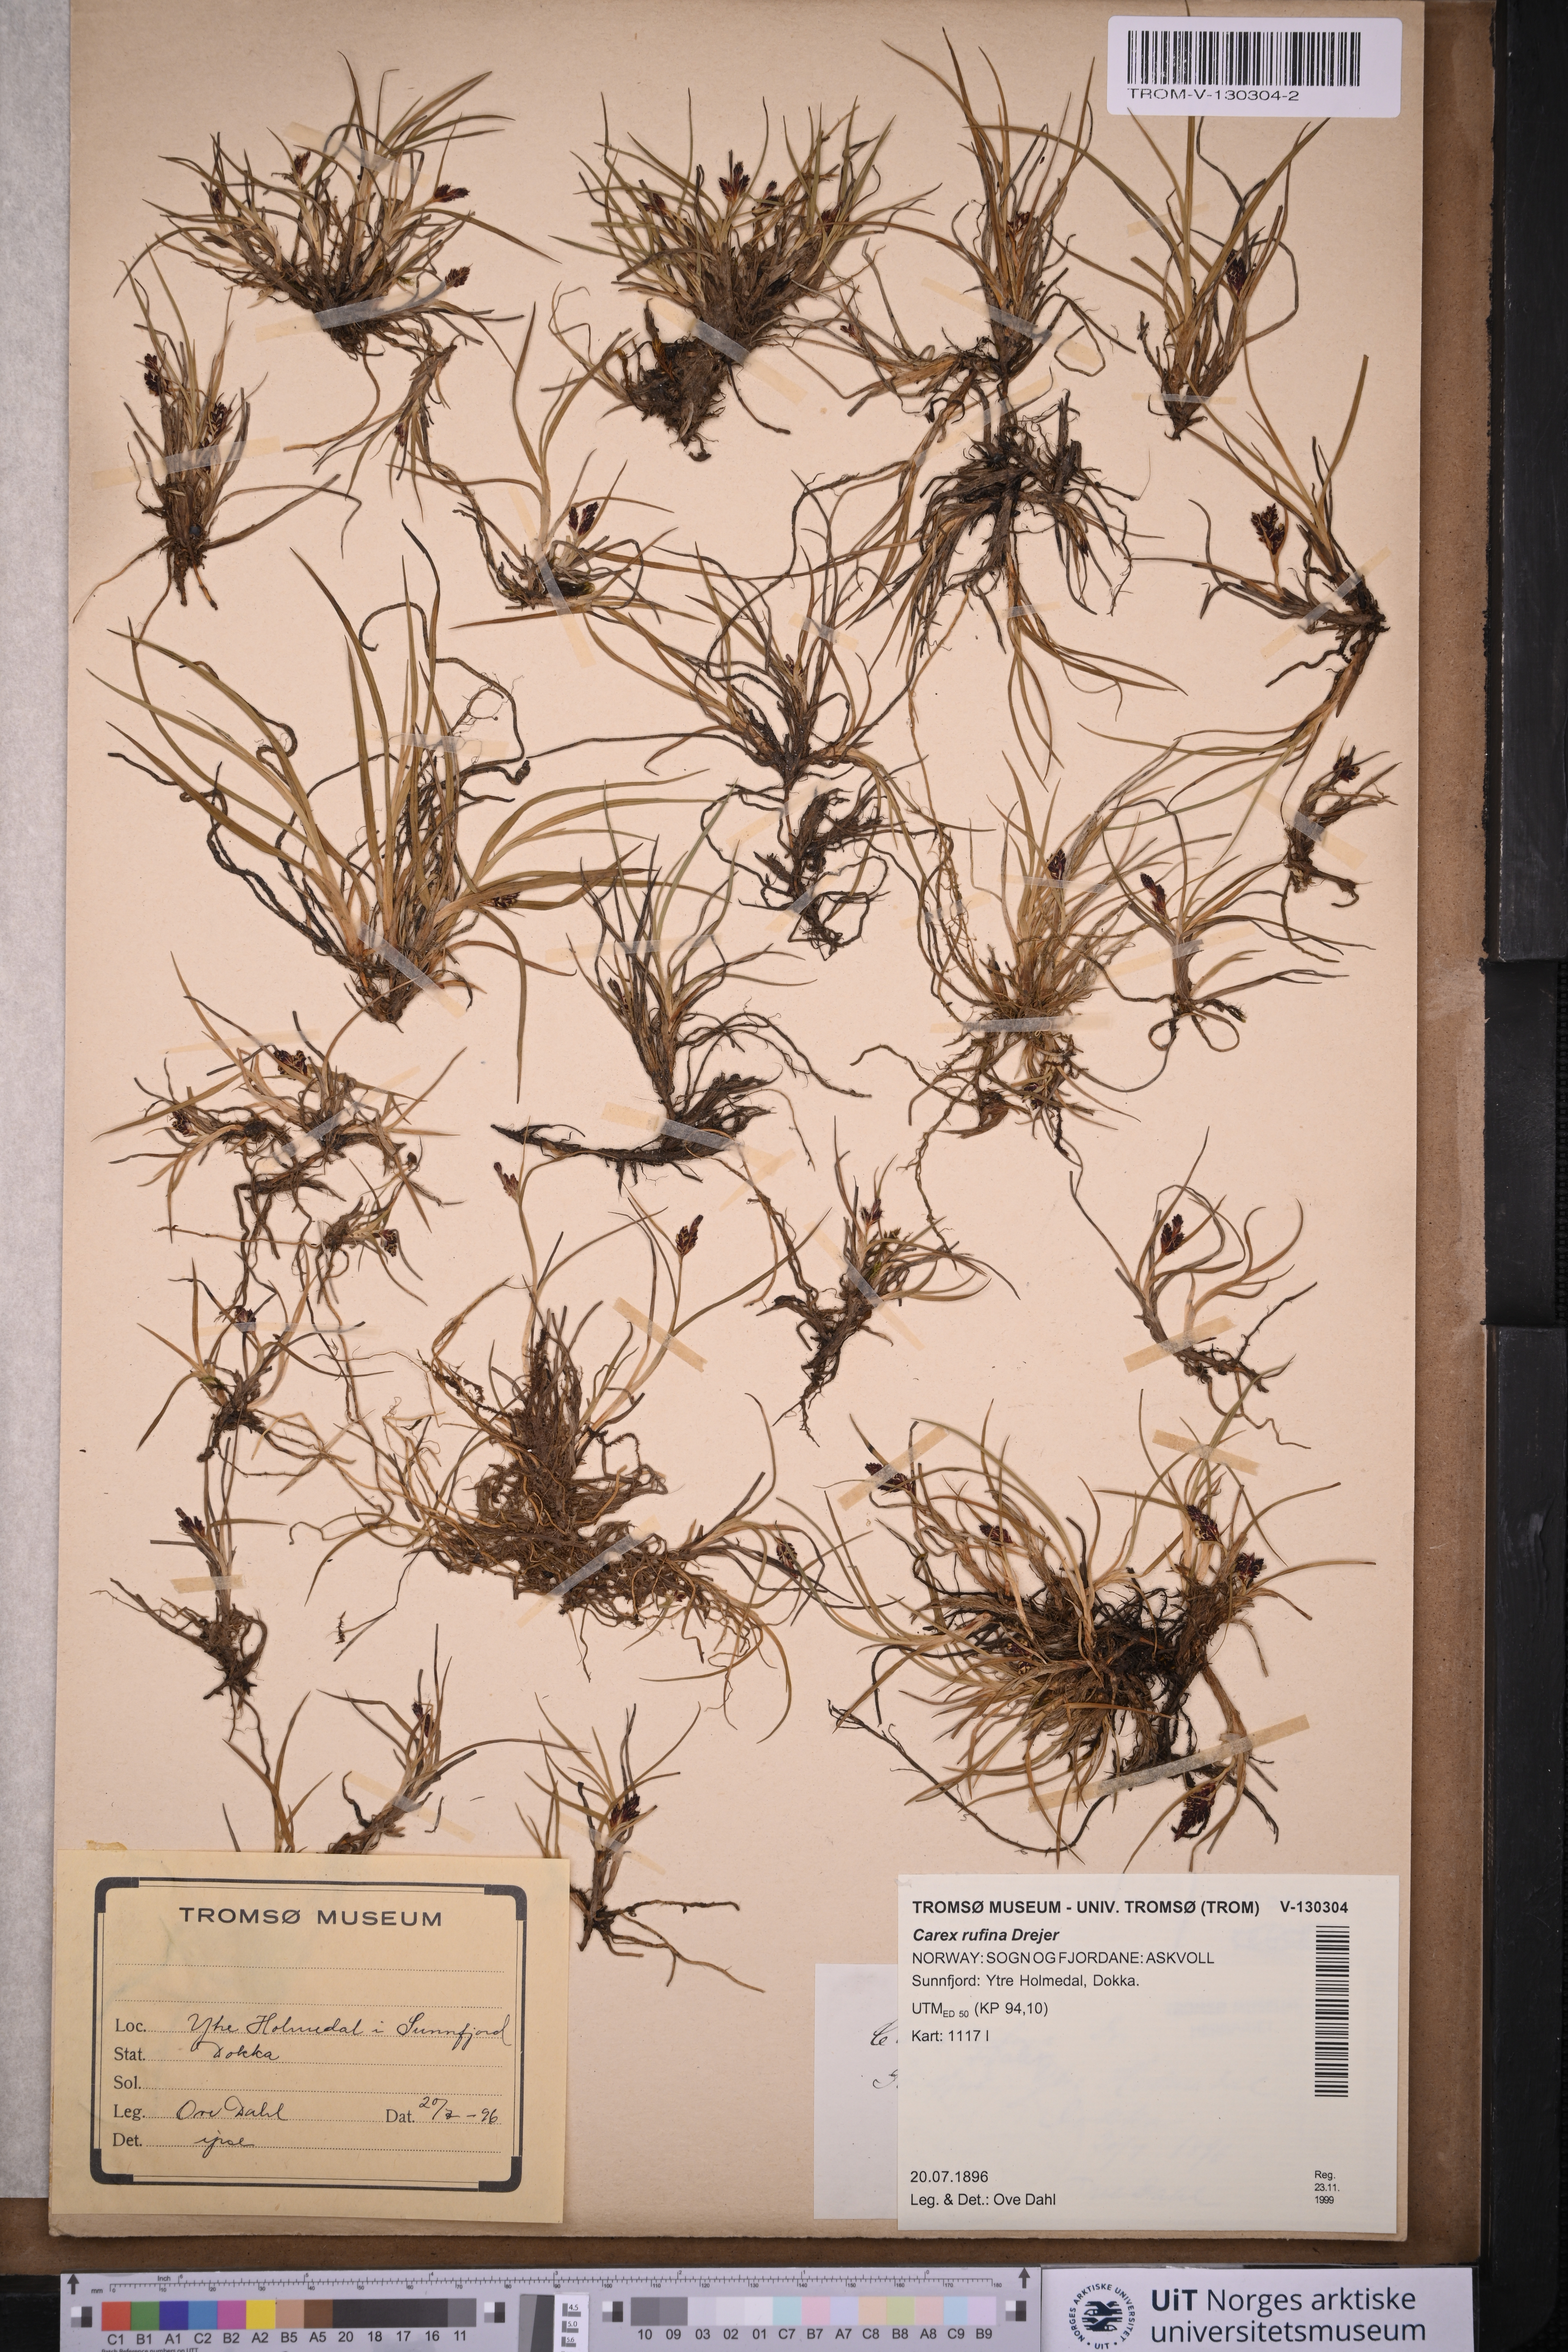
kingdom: Plantae
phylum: Tracheophyta
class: Liliopsida
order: Poales
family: Cyperaceae
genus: Carex
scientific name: Carex rufina
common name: Reddish sedge
